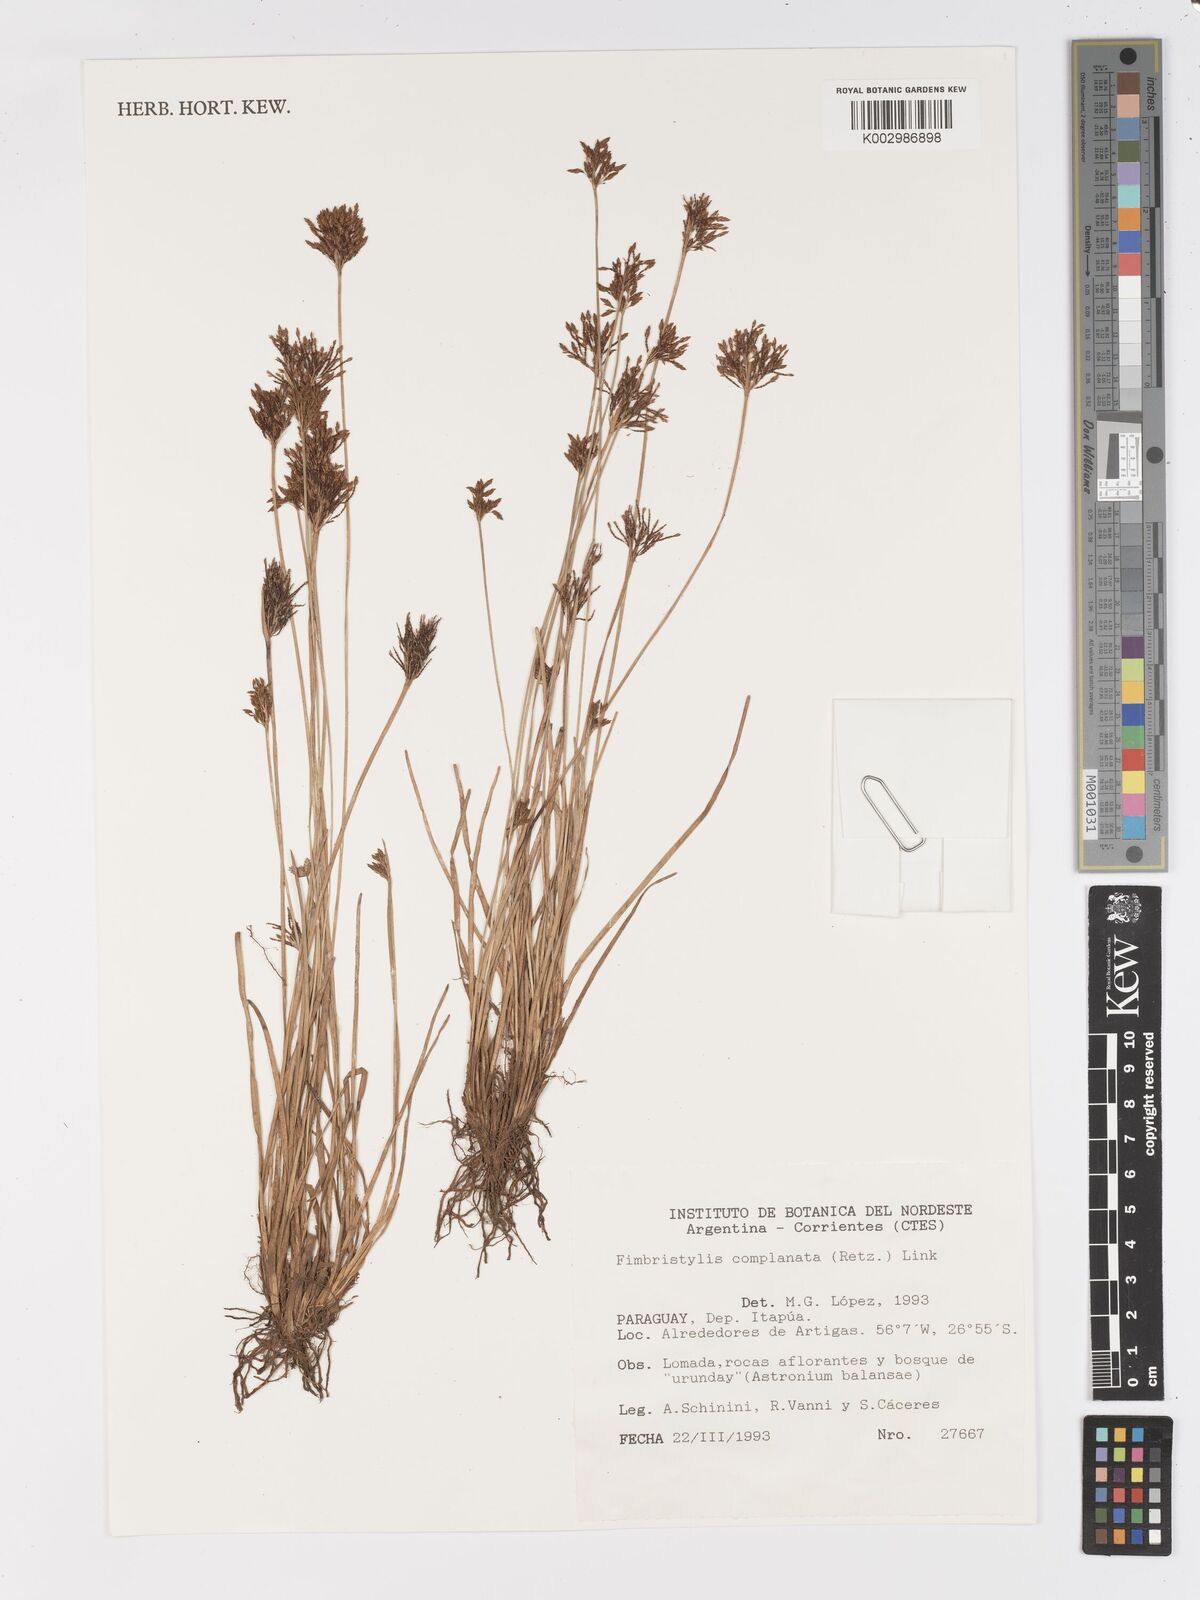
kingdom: Plantae
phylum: Tracheophyta
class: Liliopsida
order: Poales
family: Cyperaceae
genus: Fimbristylis
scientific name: Fimbristylis complanata
